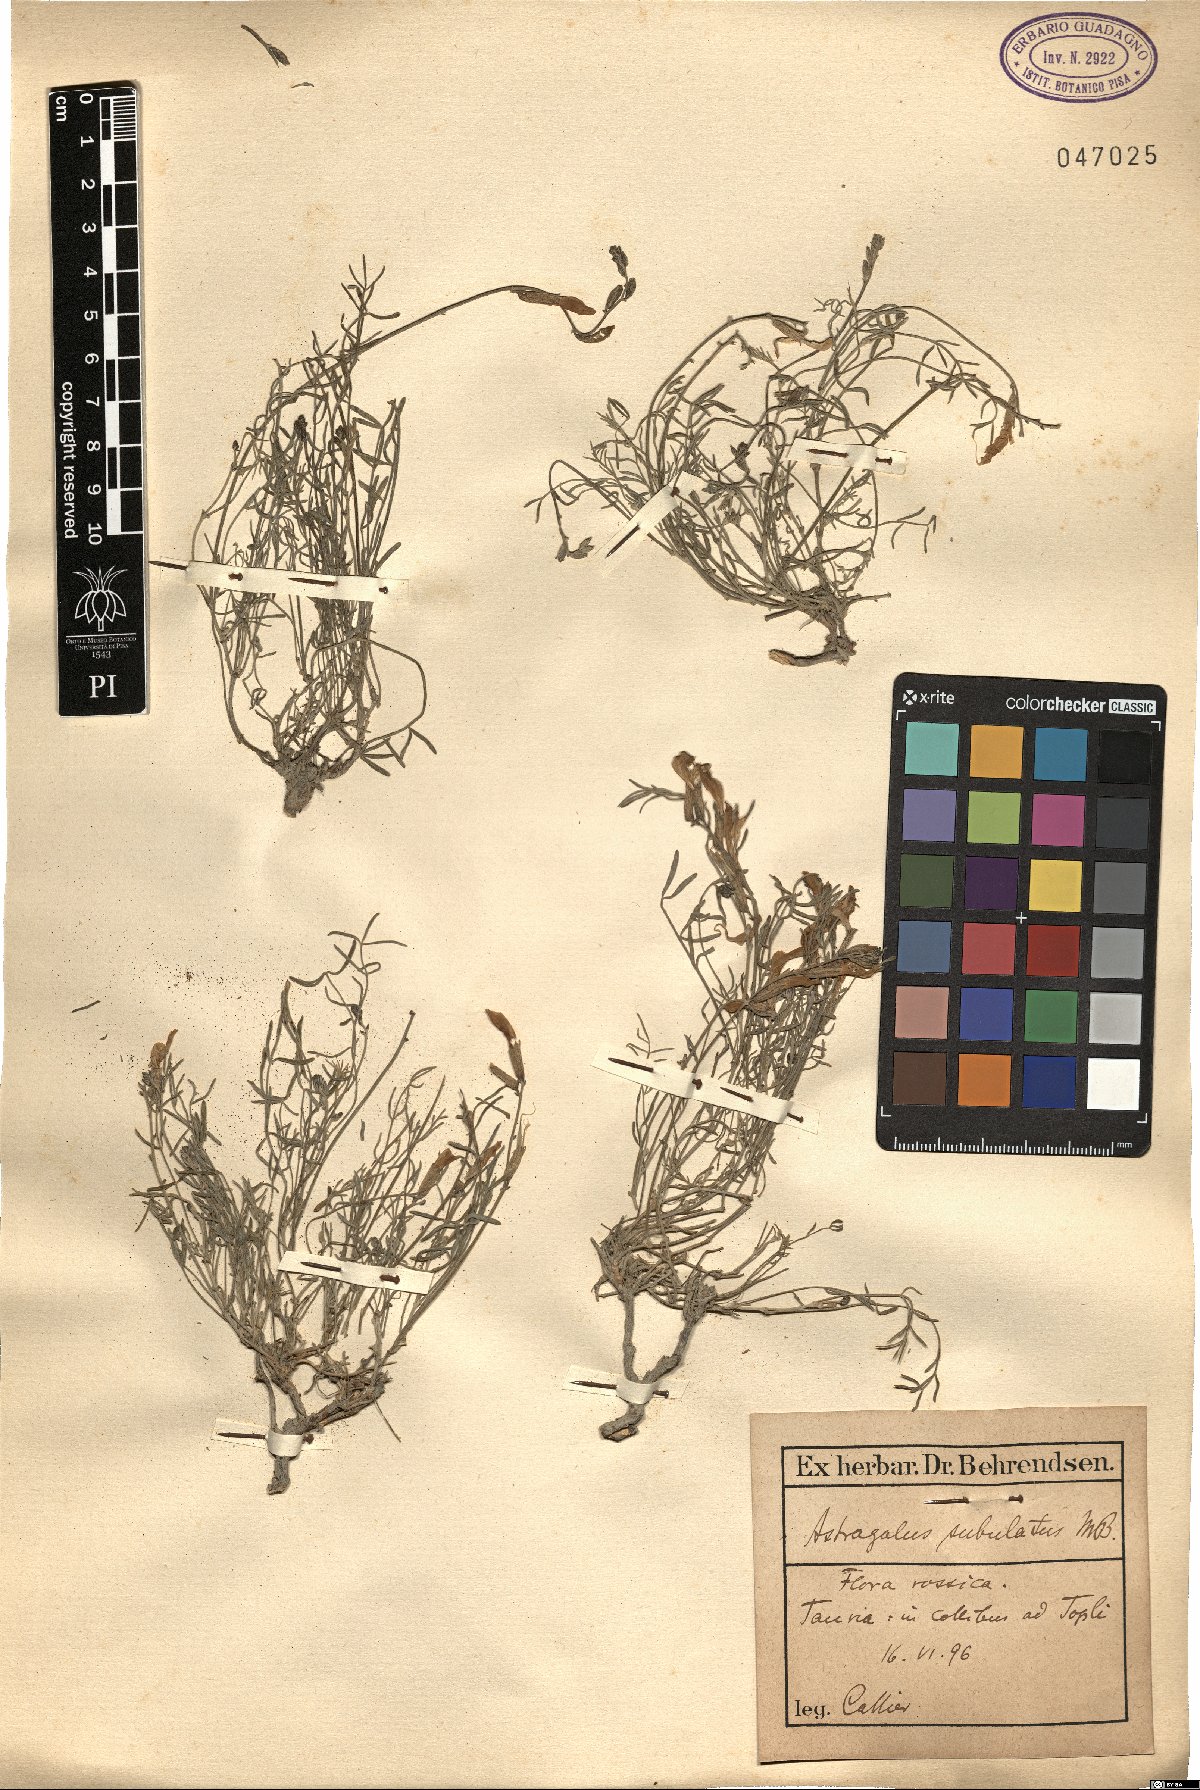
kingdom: Plantae
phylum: Tracheophyta
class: Magnoliopsida
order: Fabales
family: Fabaceae
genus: Astragalus
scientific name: Astragalus anfractuosus
